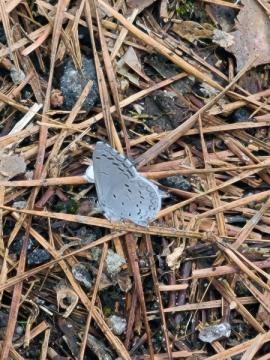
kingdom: Animalia
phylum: Arthropoda
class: Insecta
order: Lepidoptera
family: Lycaenidae
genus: Celastrina
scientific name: Celastrina ladon
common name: Spring Azure
